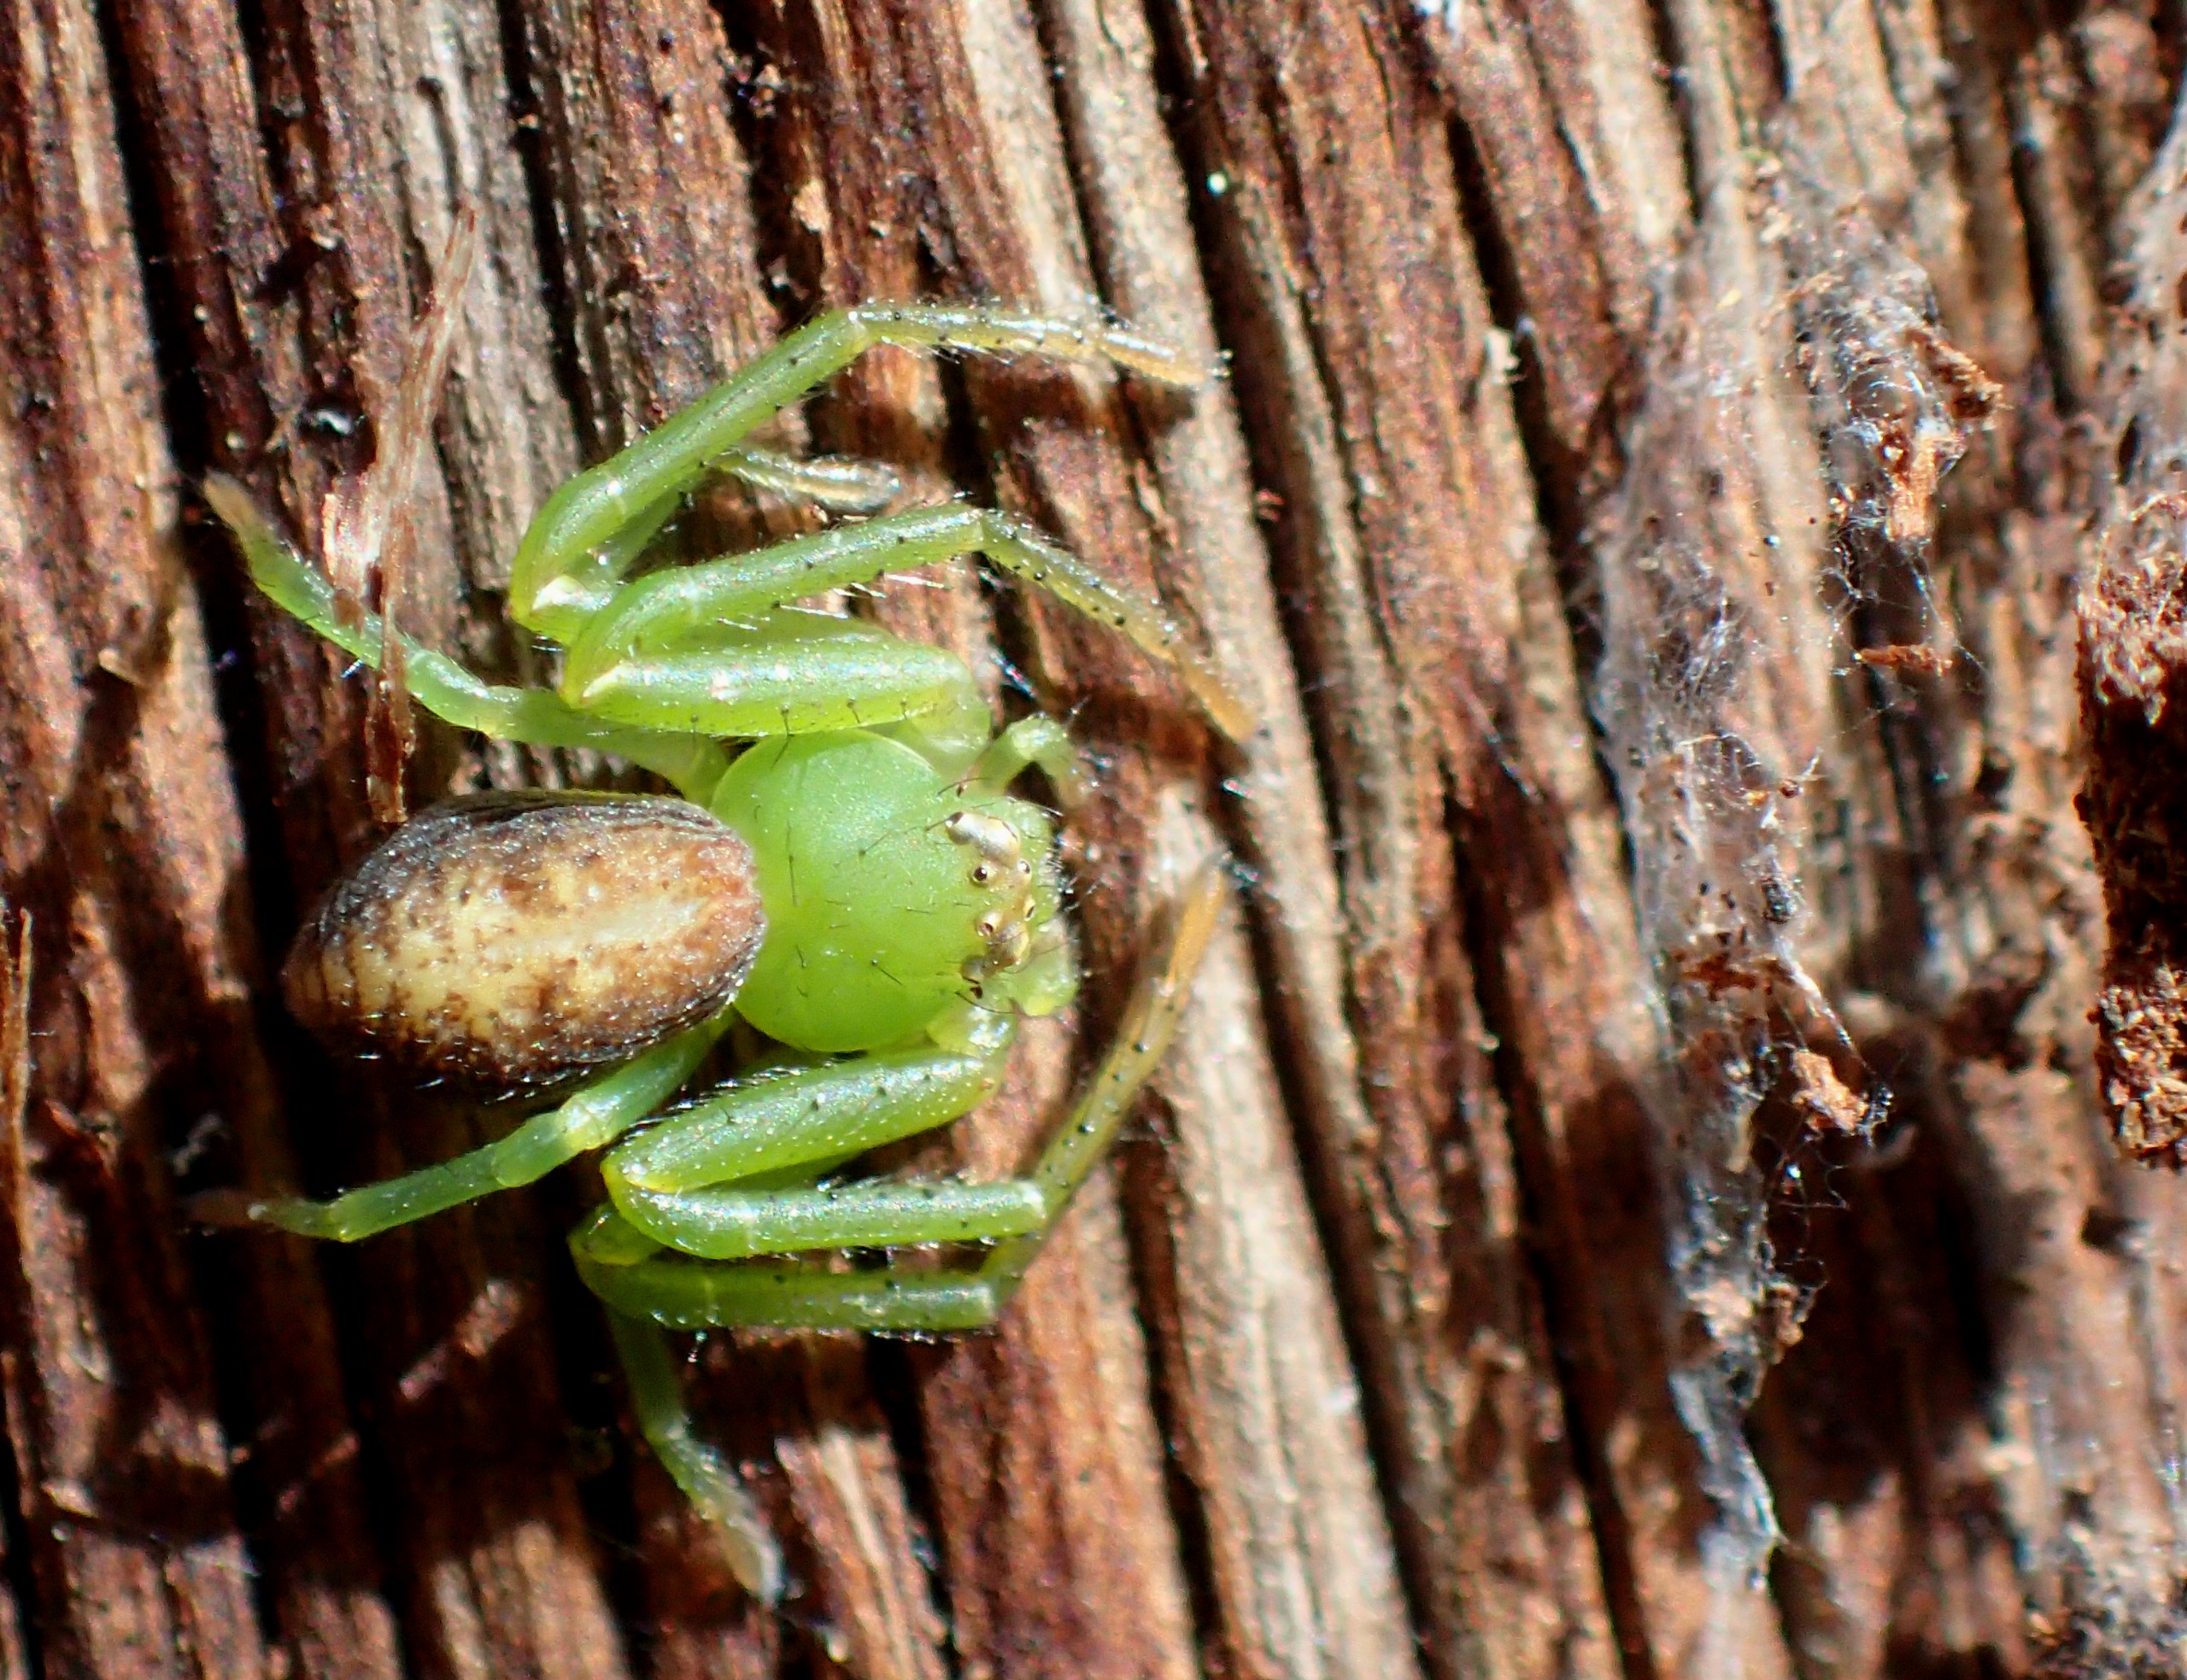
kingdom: Animalia
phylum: Arthropoda
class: Arachnida
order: Araneae
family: Thomisidae
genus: Diaea
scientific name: Diaea dorsata
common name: Grøn krabbeedderkop
